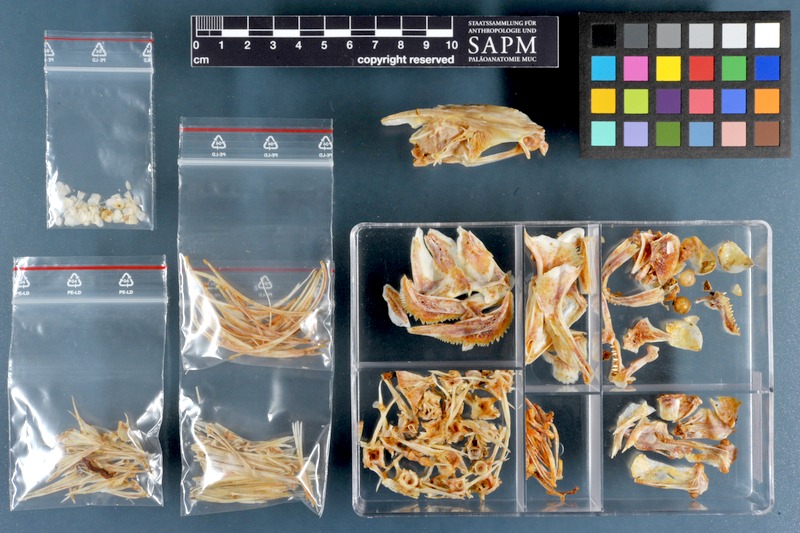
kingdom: Animalia
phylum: Chordata
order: Perciformes
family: Terapontidae
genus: Terapon
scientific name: Terapon jarbua
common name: Jarbua terapon
